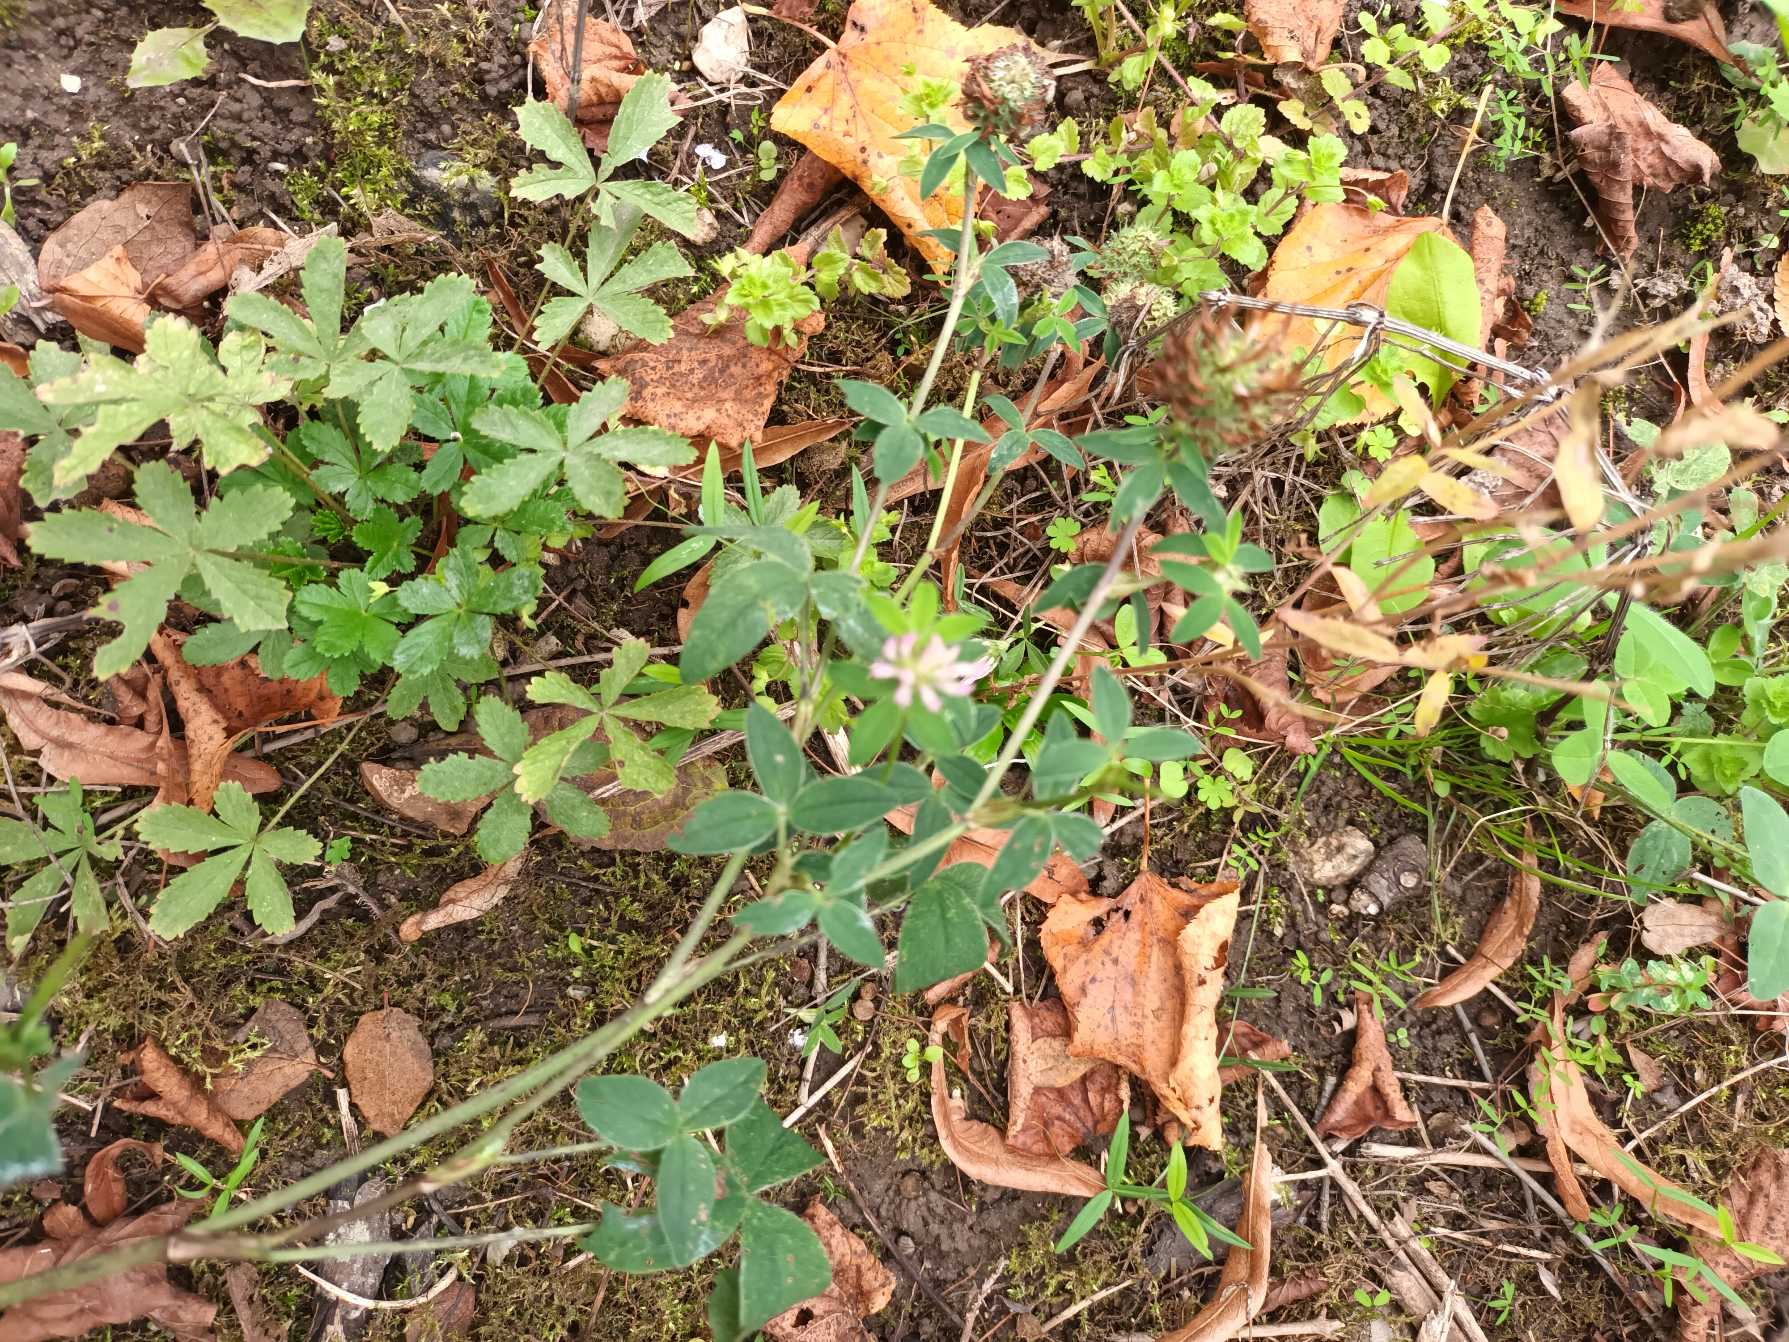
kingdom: Plantae
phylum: Tracheophyta
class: Magnoliopsida
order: Fabales
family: Fabaceae
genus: Trifolium
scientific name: Trifolium pratense
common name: Rød-kløver
